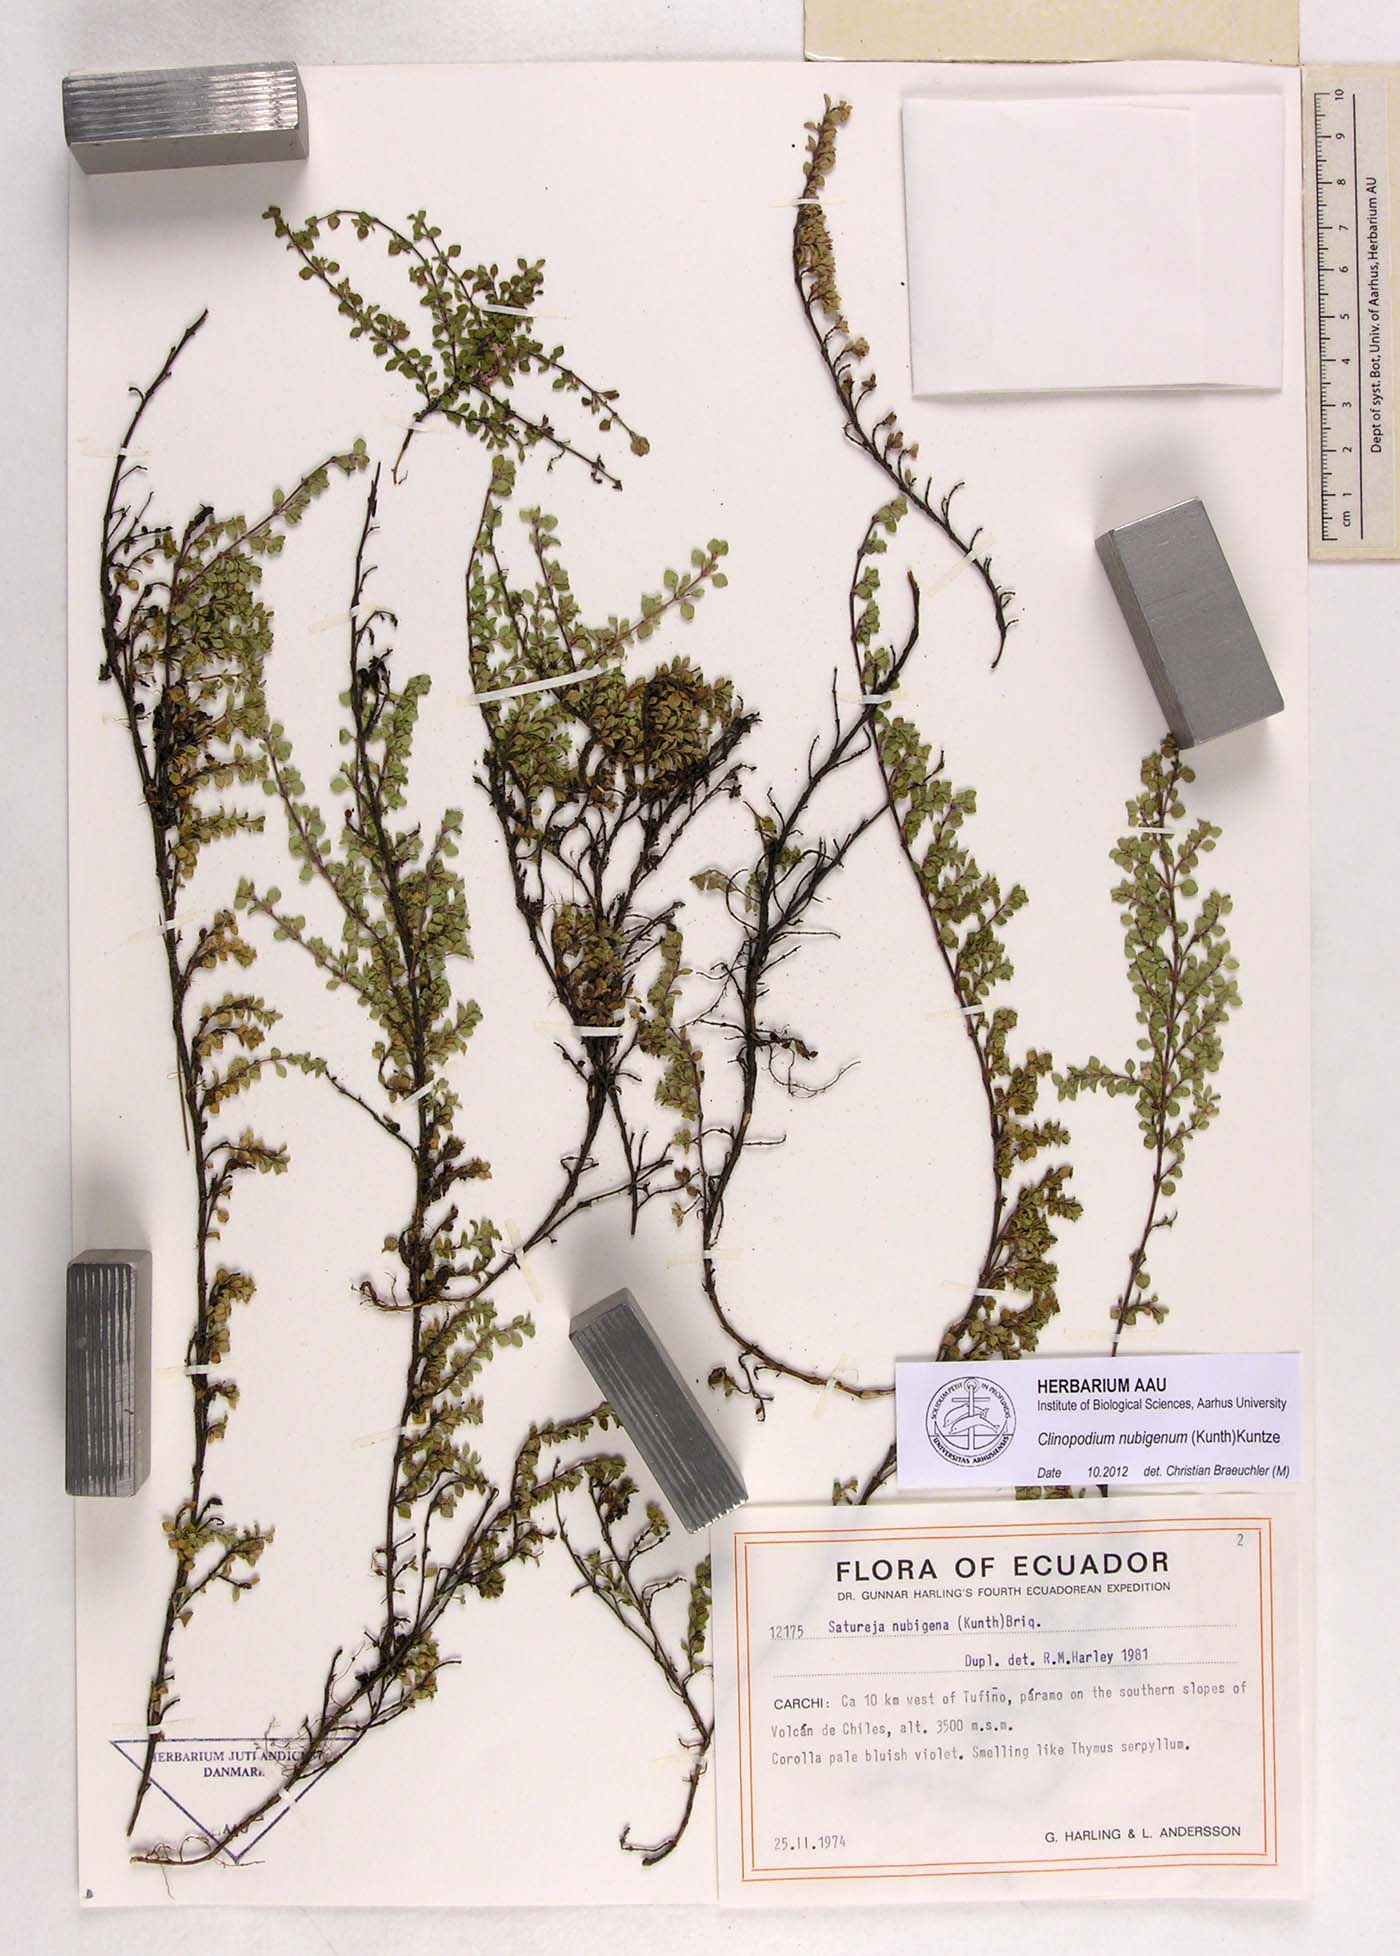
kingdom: Plantae
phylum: Tracheophyta
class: Magnoliopsida
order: Lamiales
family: Lamiaceae
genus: Clinopodium
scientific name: Clinopodium nubigenum
